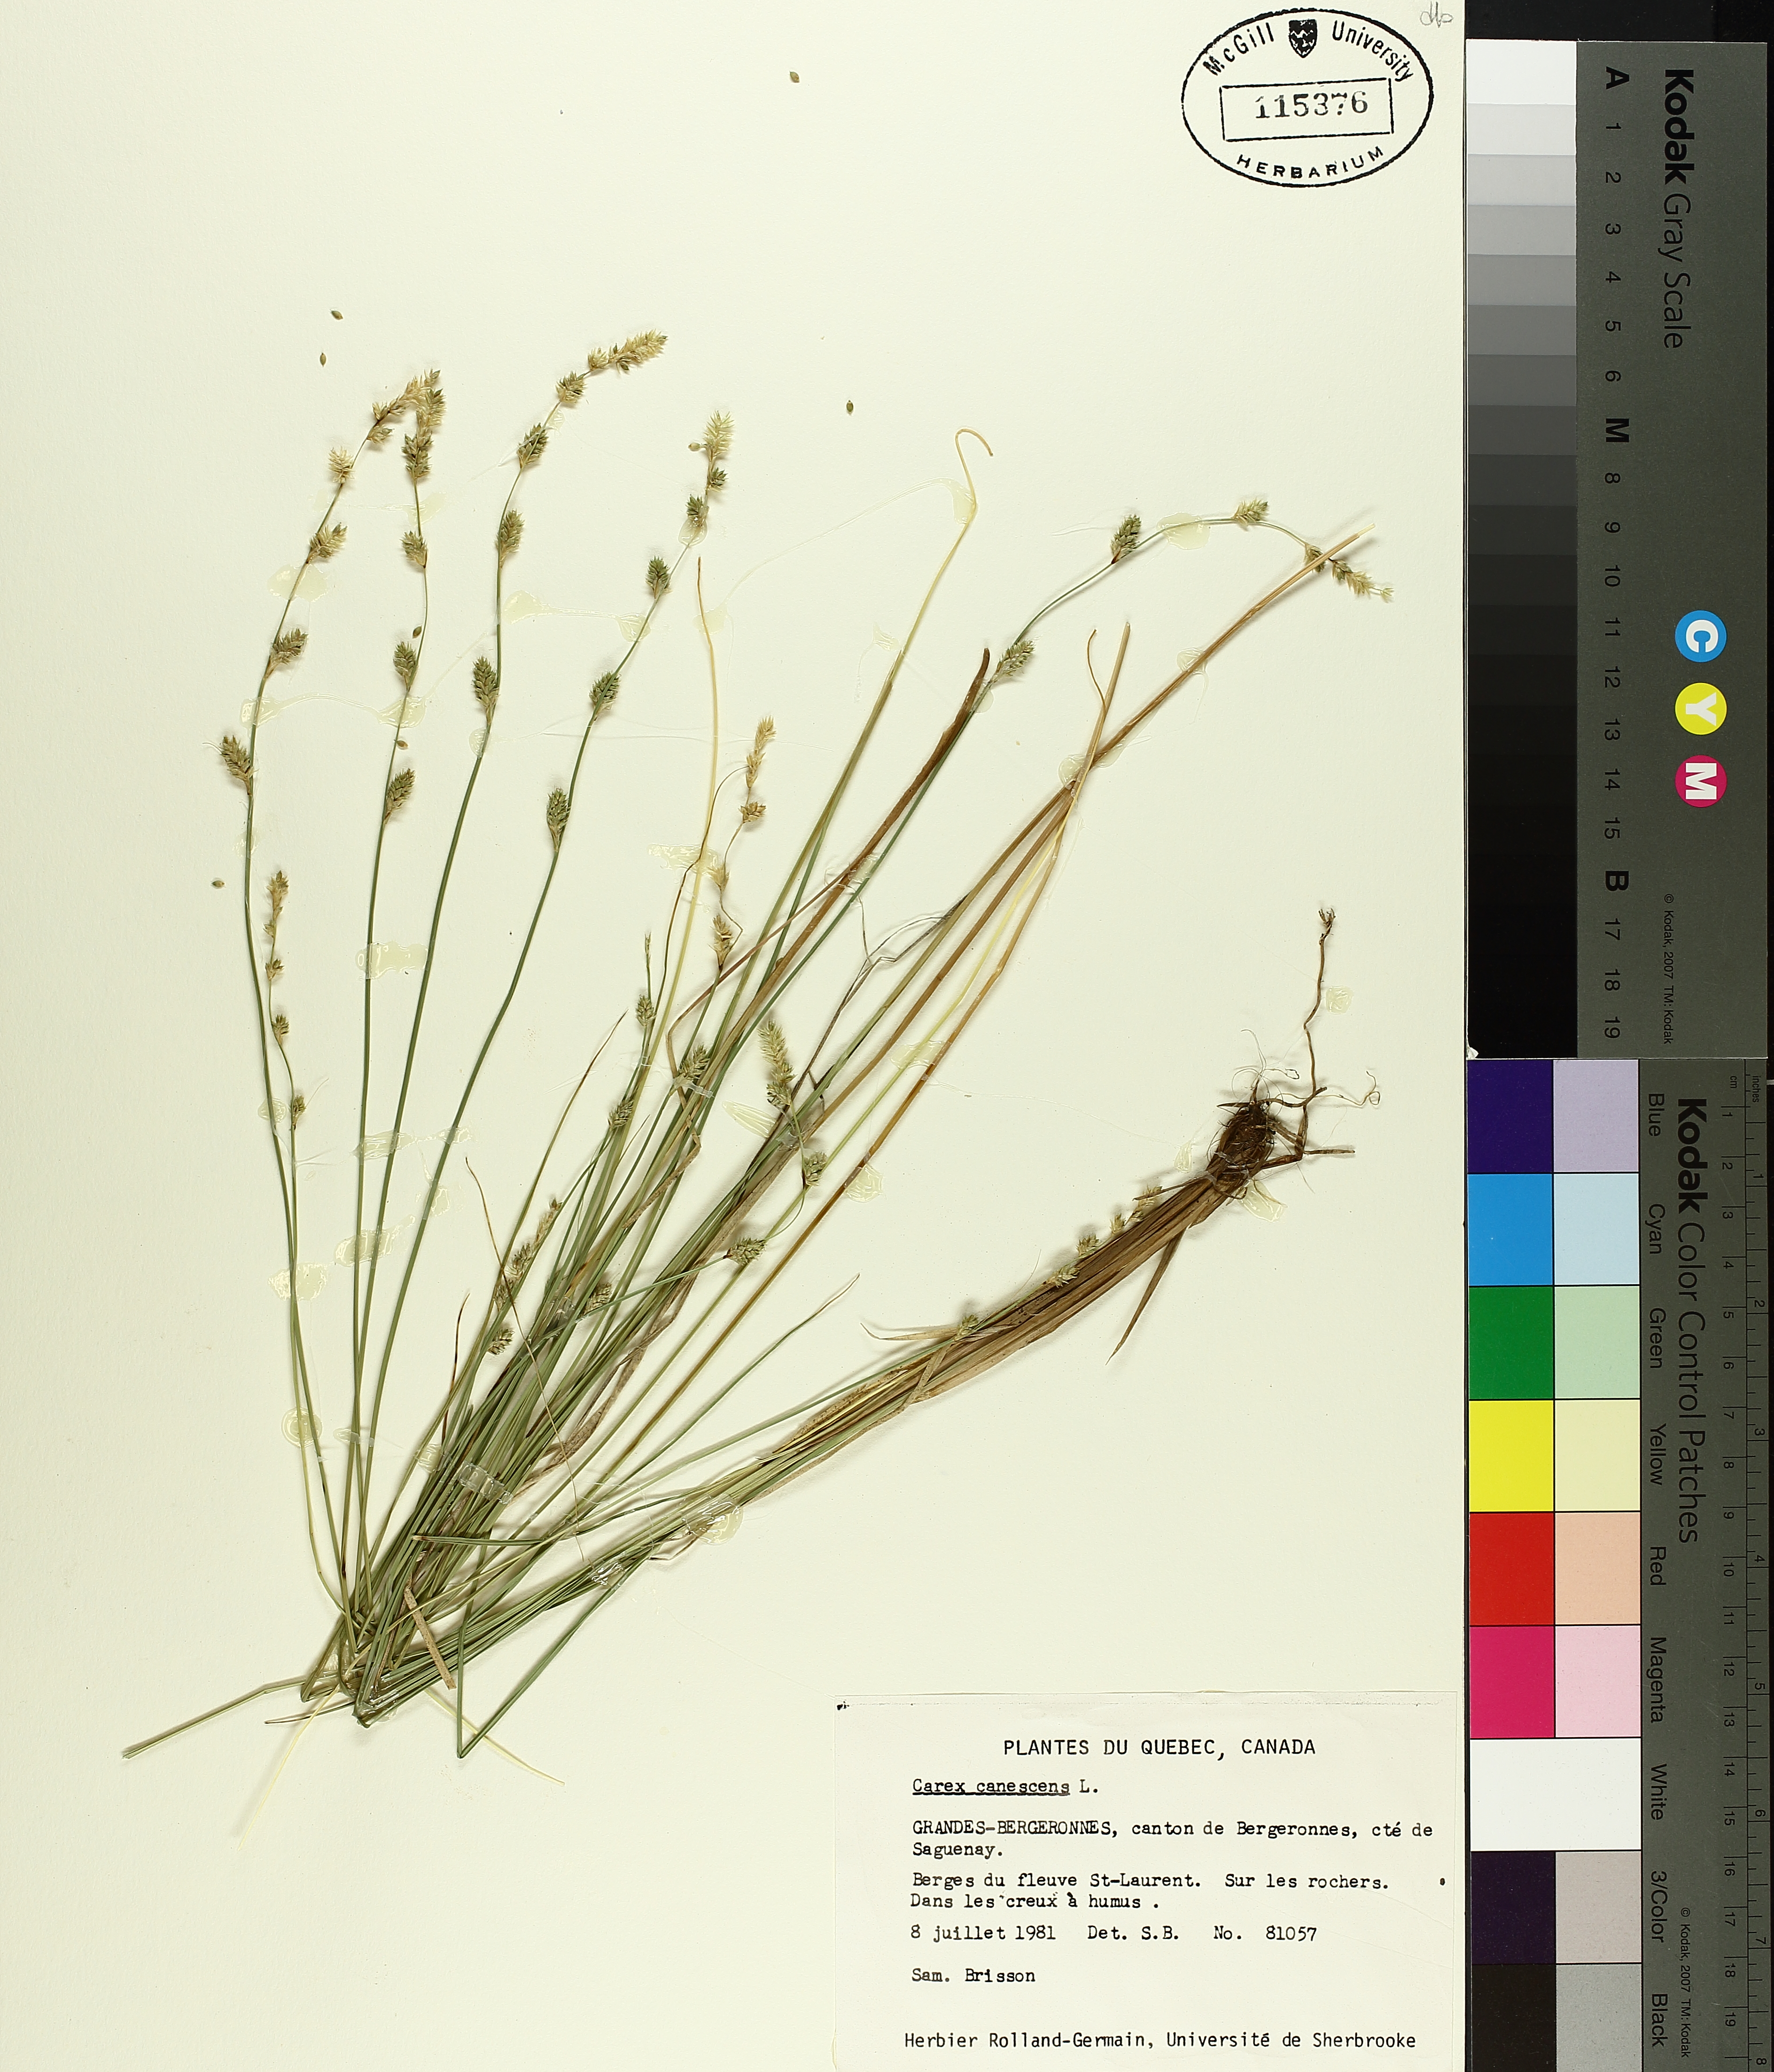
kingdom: Plantae
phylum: Tracheophyta
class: Liliopsida
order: Poales
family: Cyperaceae
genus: Carex
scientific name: Carex canescens
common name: White sedge
